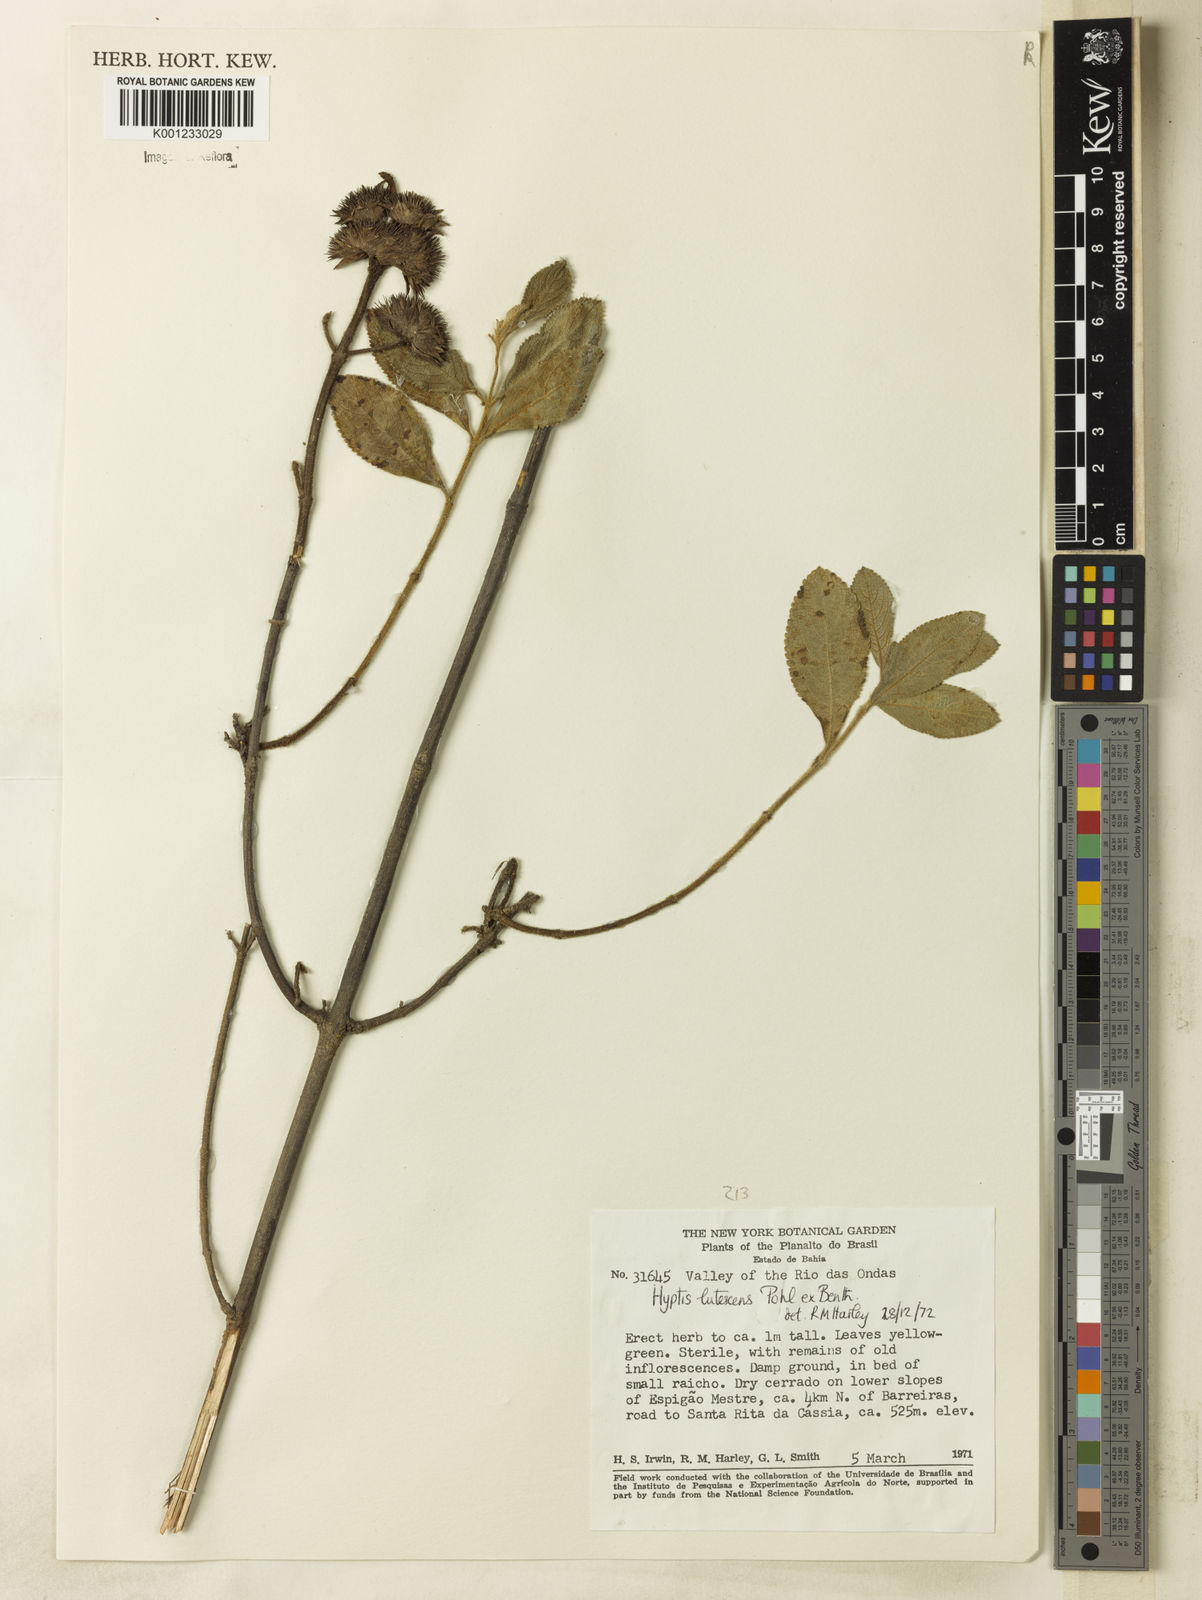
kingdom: Plantae
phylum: Tracheophyta
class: Magnoliopsida
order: Lamiales
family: Lamiaceae
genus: Hyptis
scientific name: Hyptis lutescens
